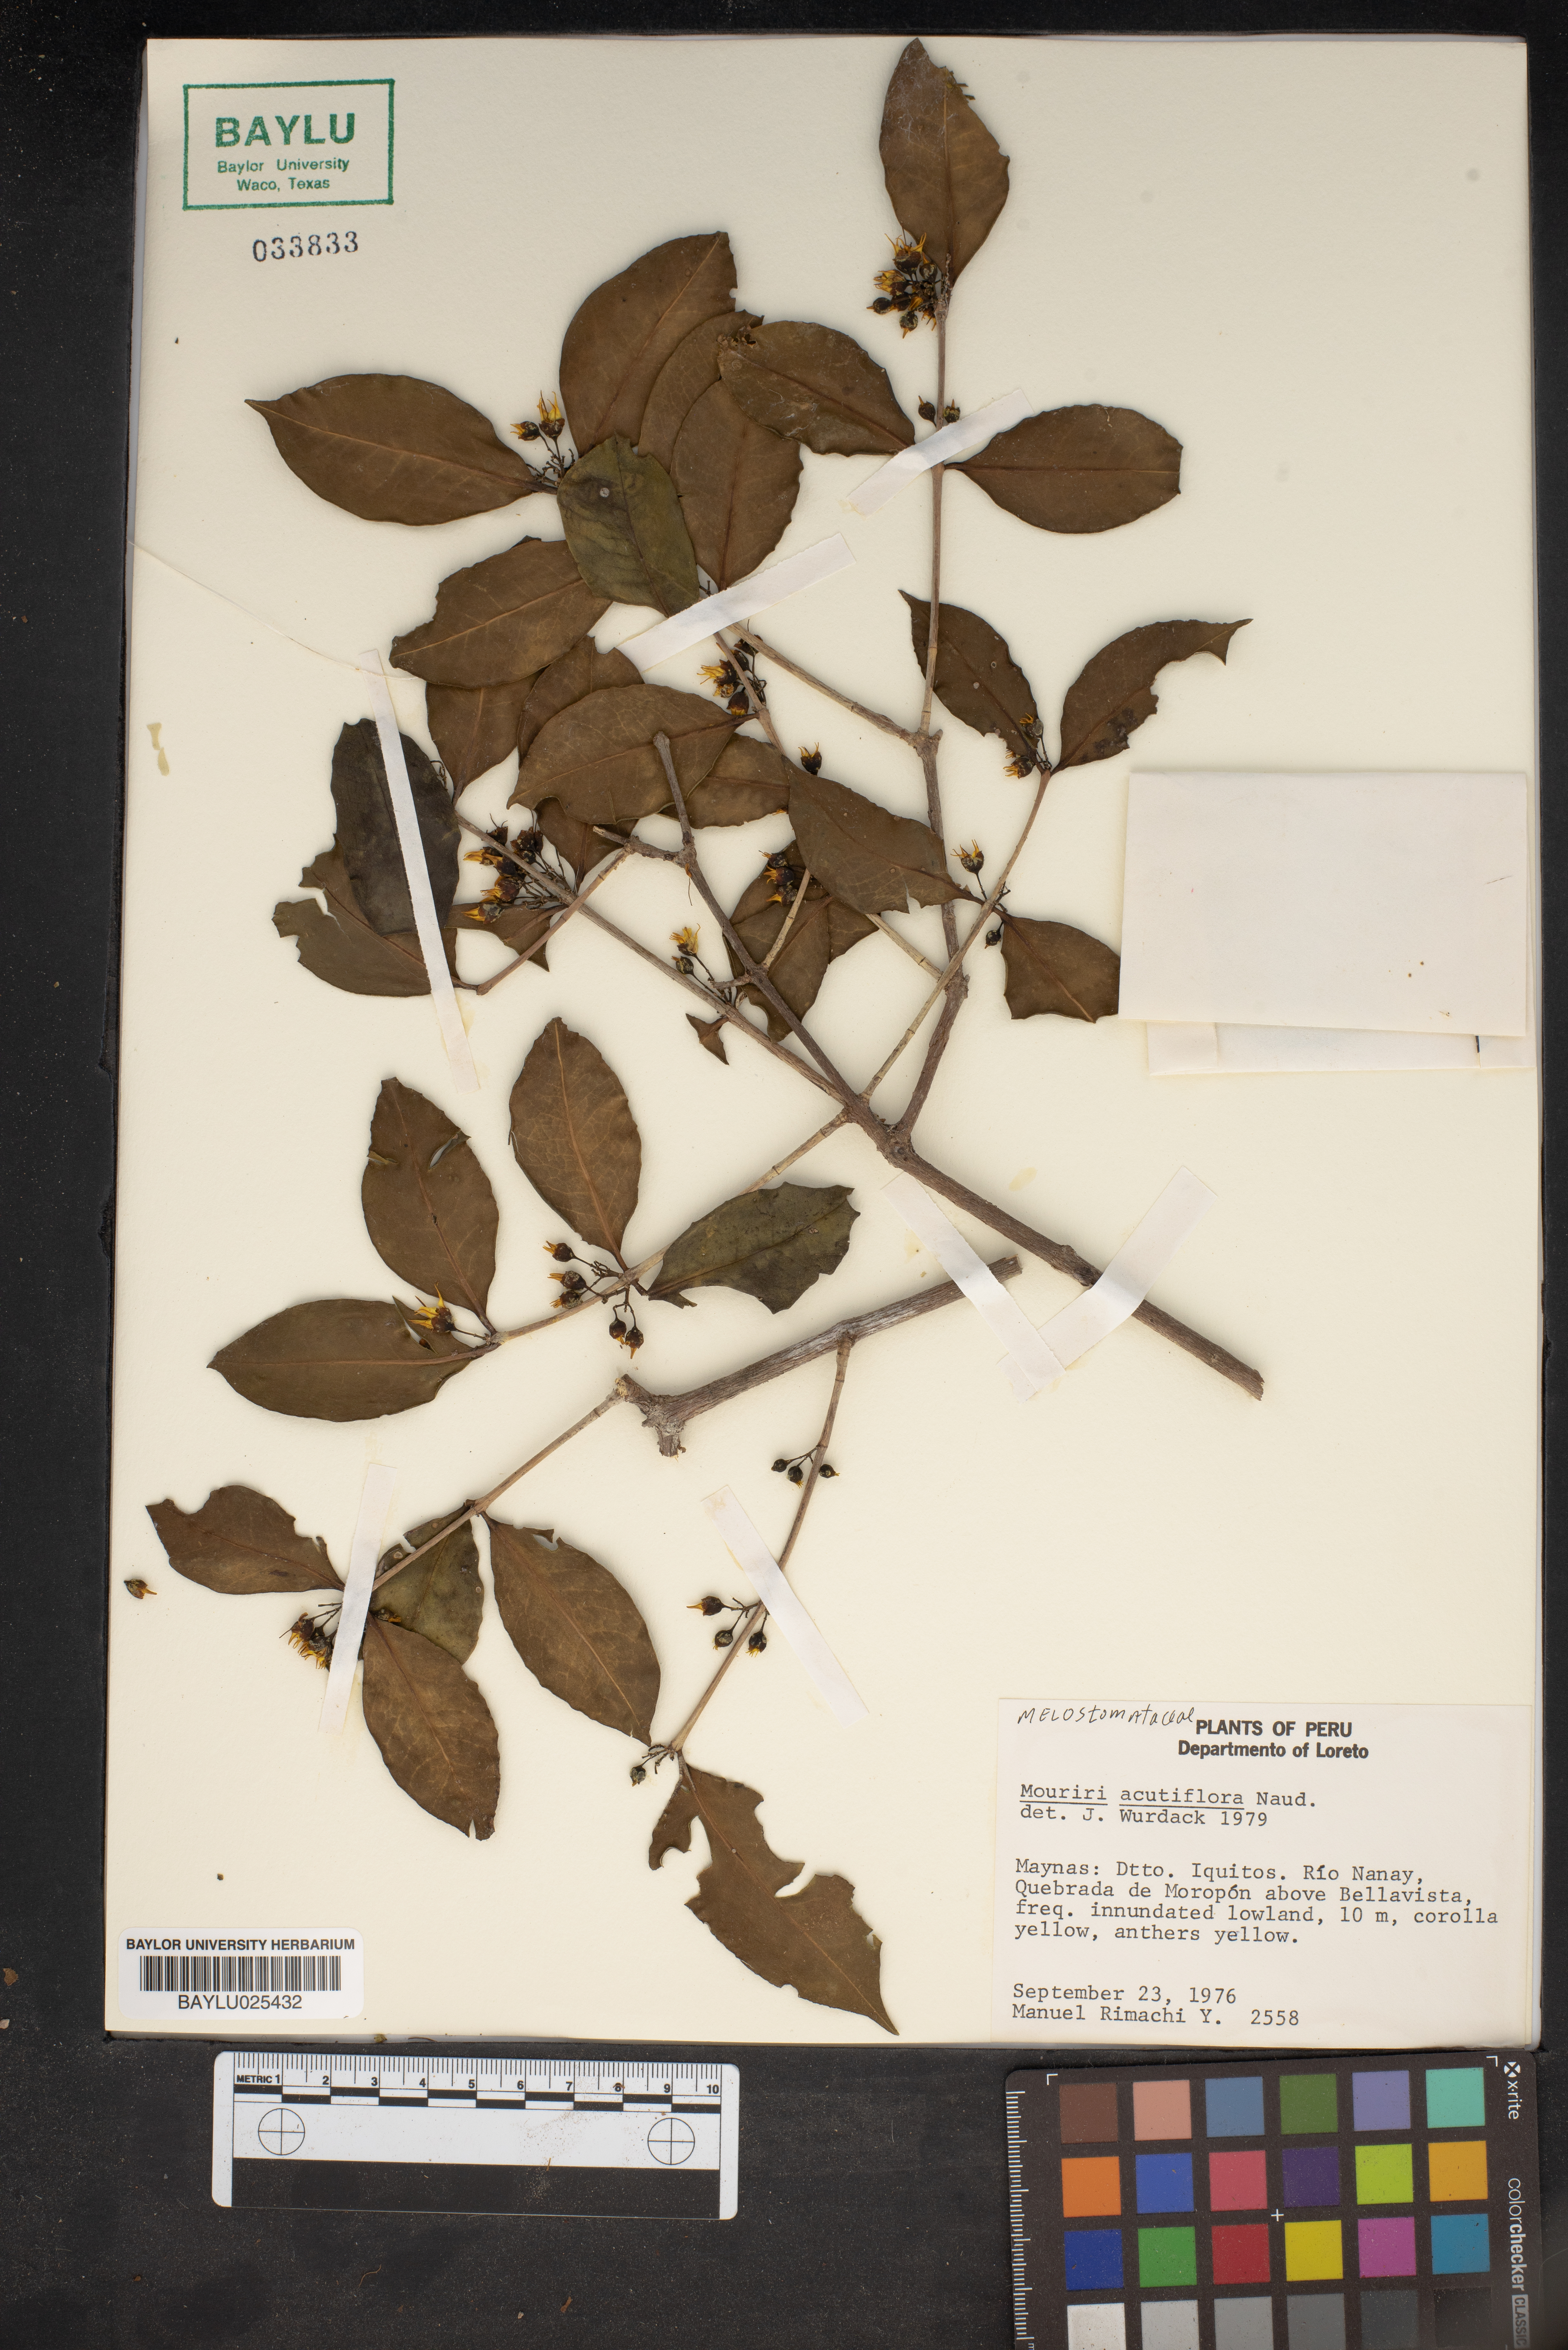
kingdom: Plantae
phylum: Tracheophyta
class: Magnoliopsida
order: Myrtales
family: Melastomataceae
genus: Mouriri
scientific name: Mouriri acutiflora
